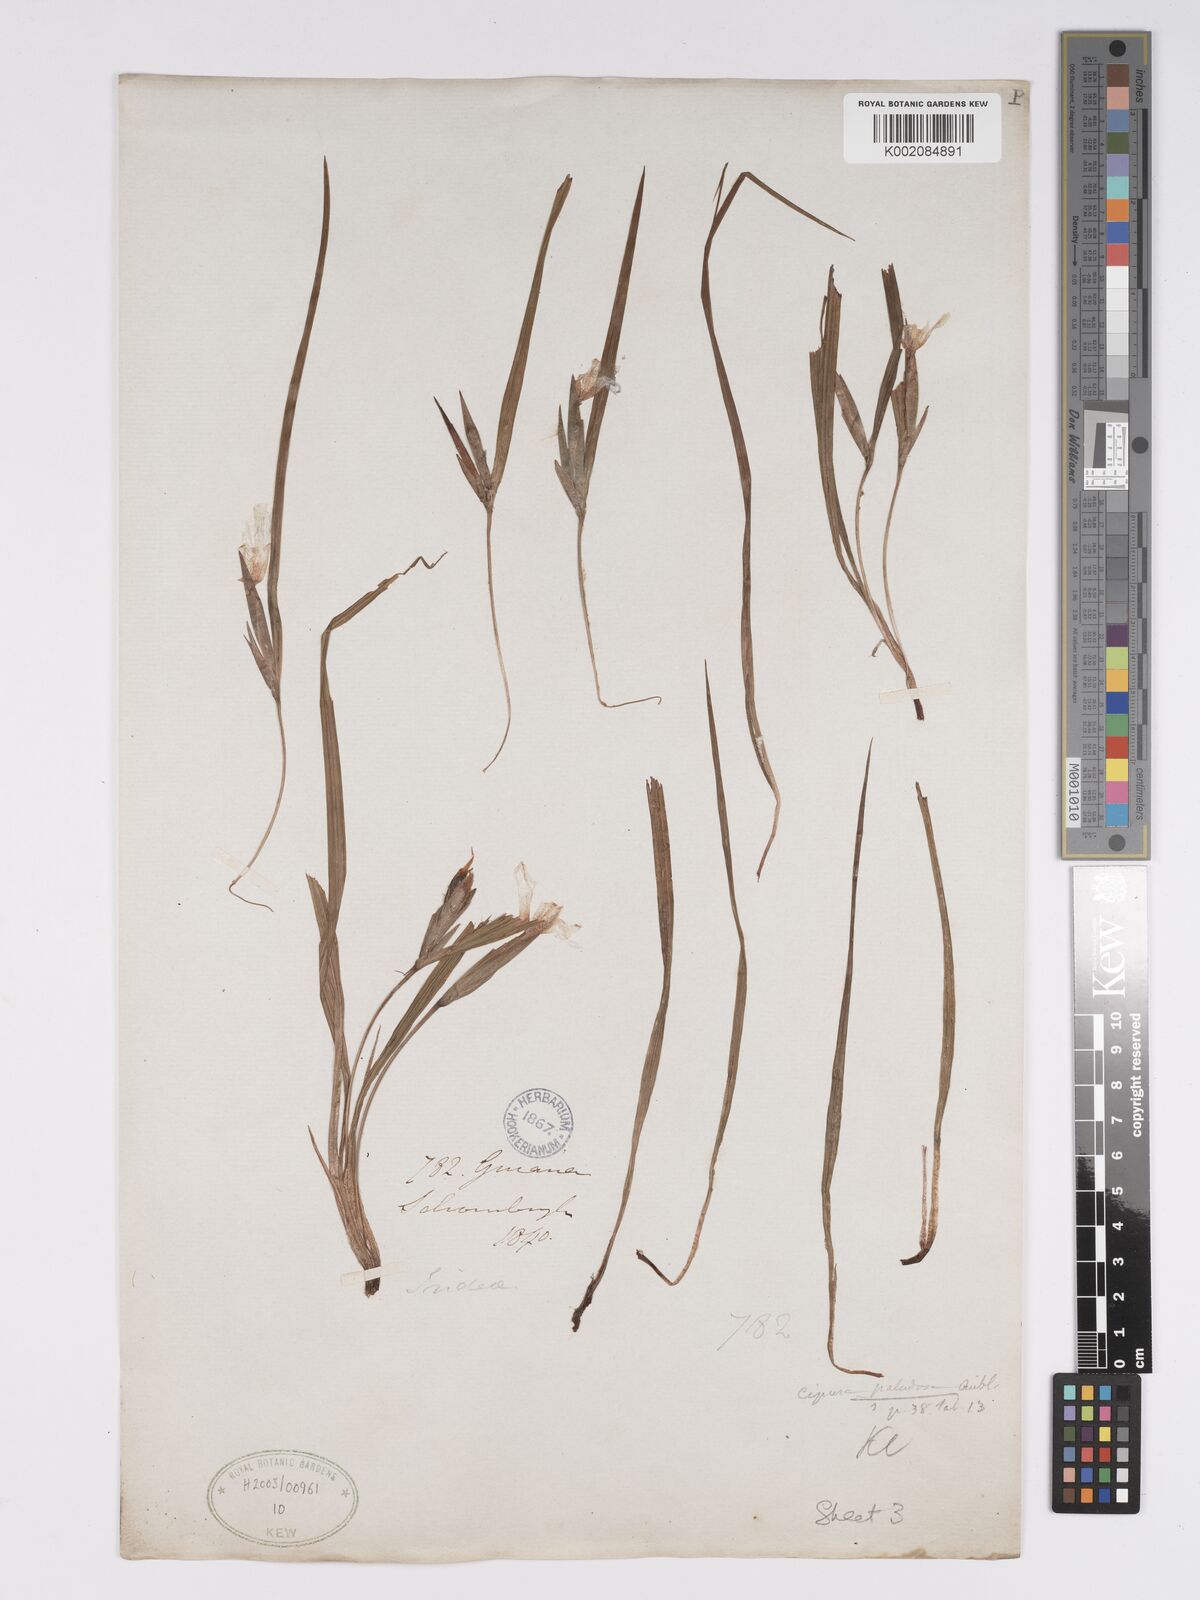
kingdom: Plantae
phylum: Tracheophyta
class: Liliopsida
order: Asparagales
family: Iridaceae
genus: Cipura
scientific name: Cipura paludosa
